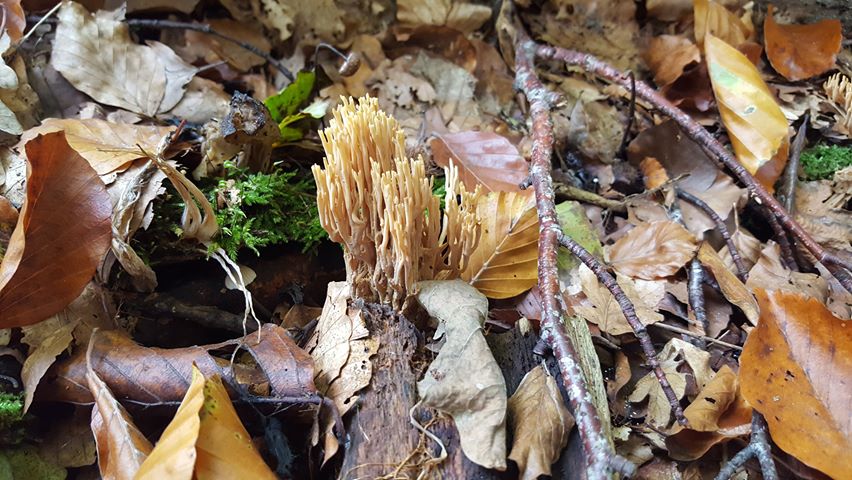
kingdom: Fungi
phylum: Basidiomycota
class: Agaricomycetes
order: Gomphales
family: Gomphaceae
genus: Ramaria
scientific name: Ramaria stricta
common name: rank koralsvamp
